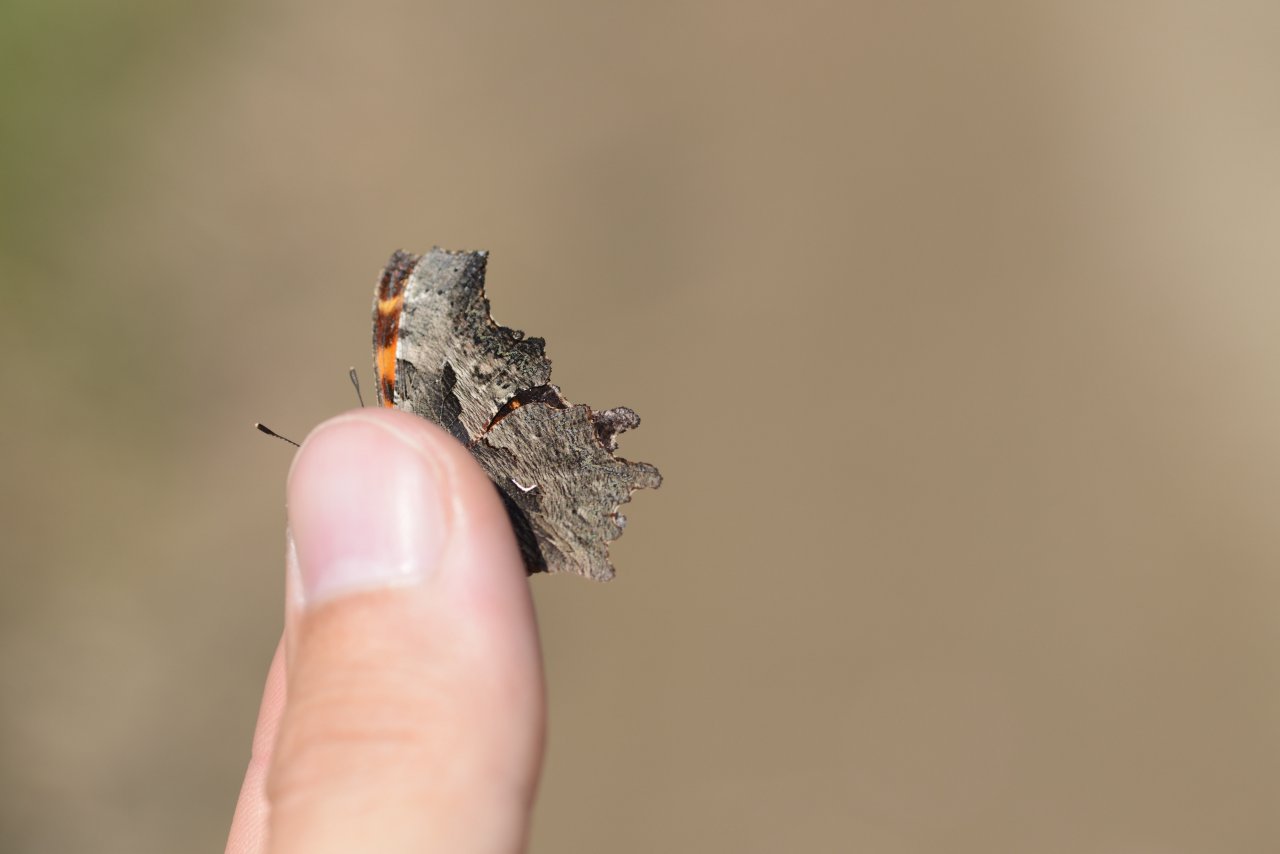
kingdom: Animalia
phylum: Arthropoda
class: Insecta
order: Lepidoptera
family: Nymphalidae
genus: Polygonia
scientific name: Polygonia progne
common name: Gray Comma
